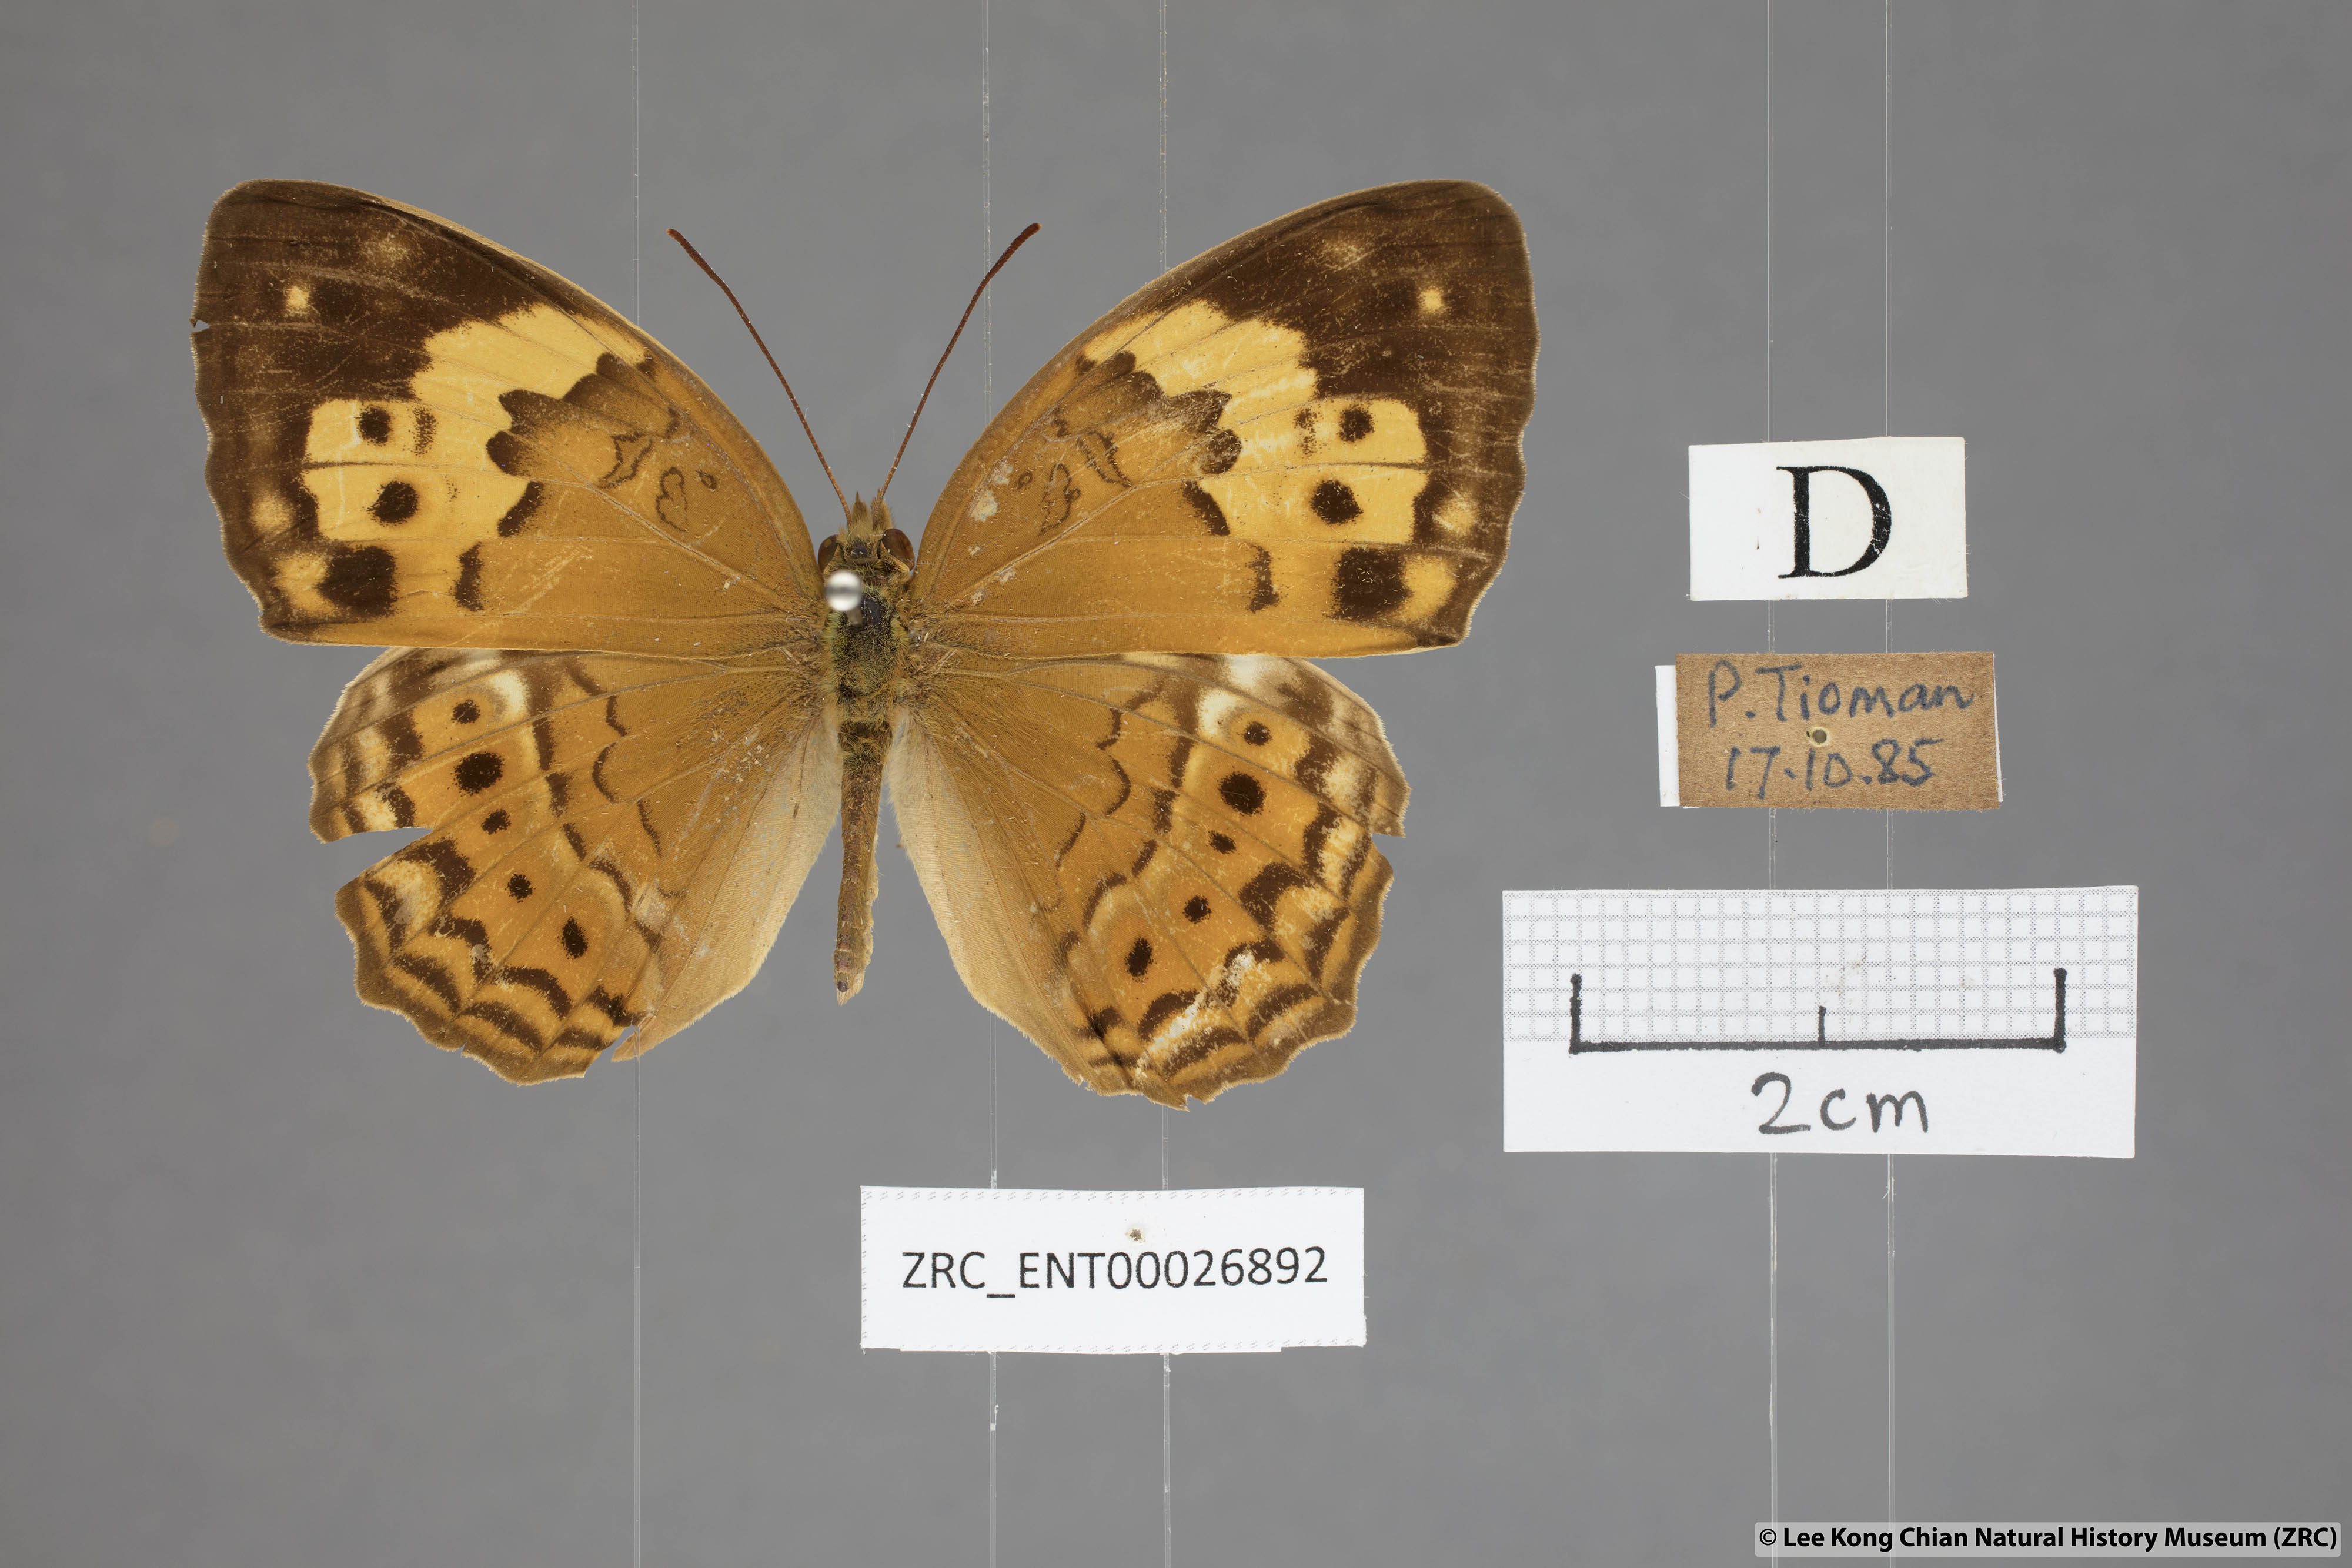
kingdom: Animalia
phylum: Arthropoda
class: Insecta
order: Lepidoptera
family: Nymphalidae
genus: Cupha
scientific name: Cupha erymanthis
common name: Rustic
